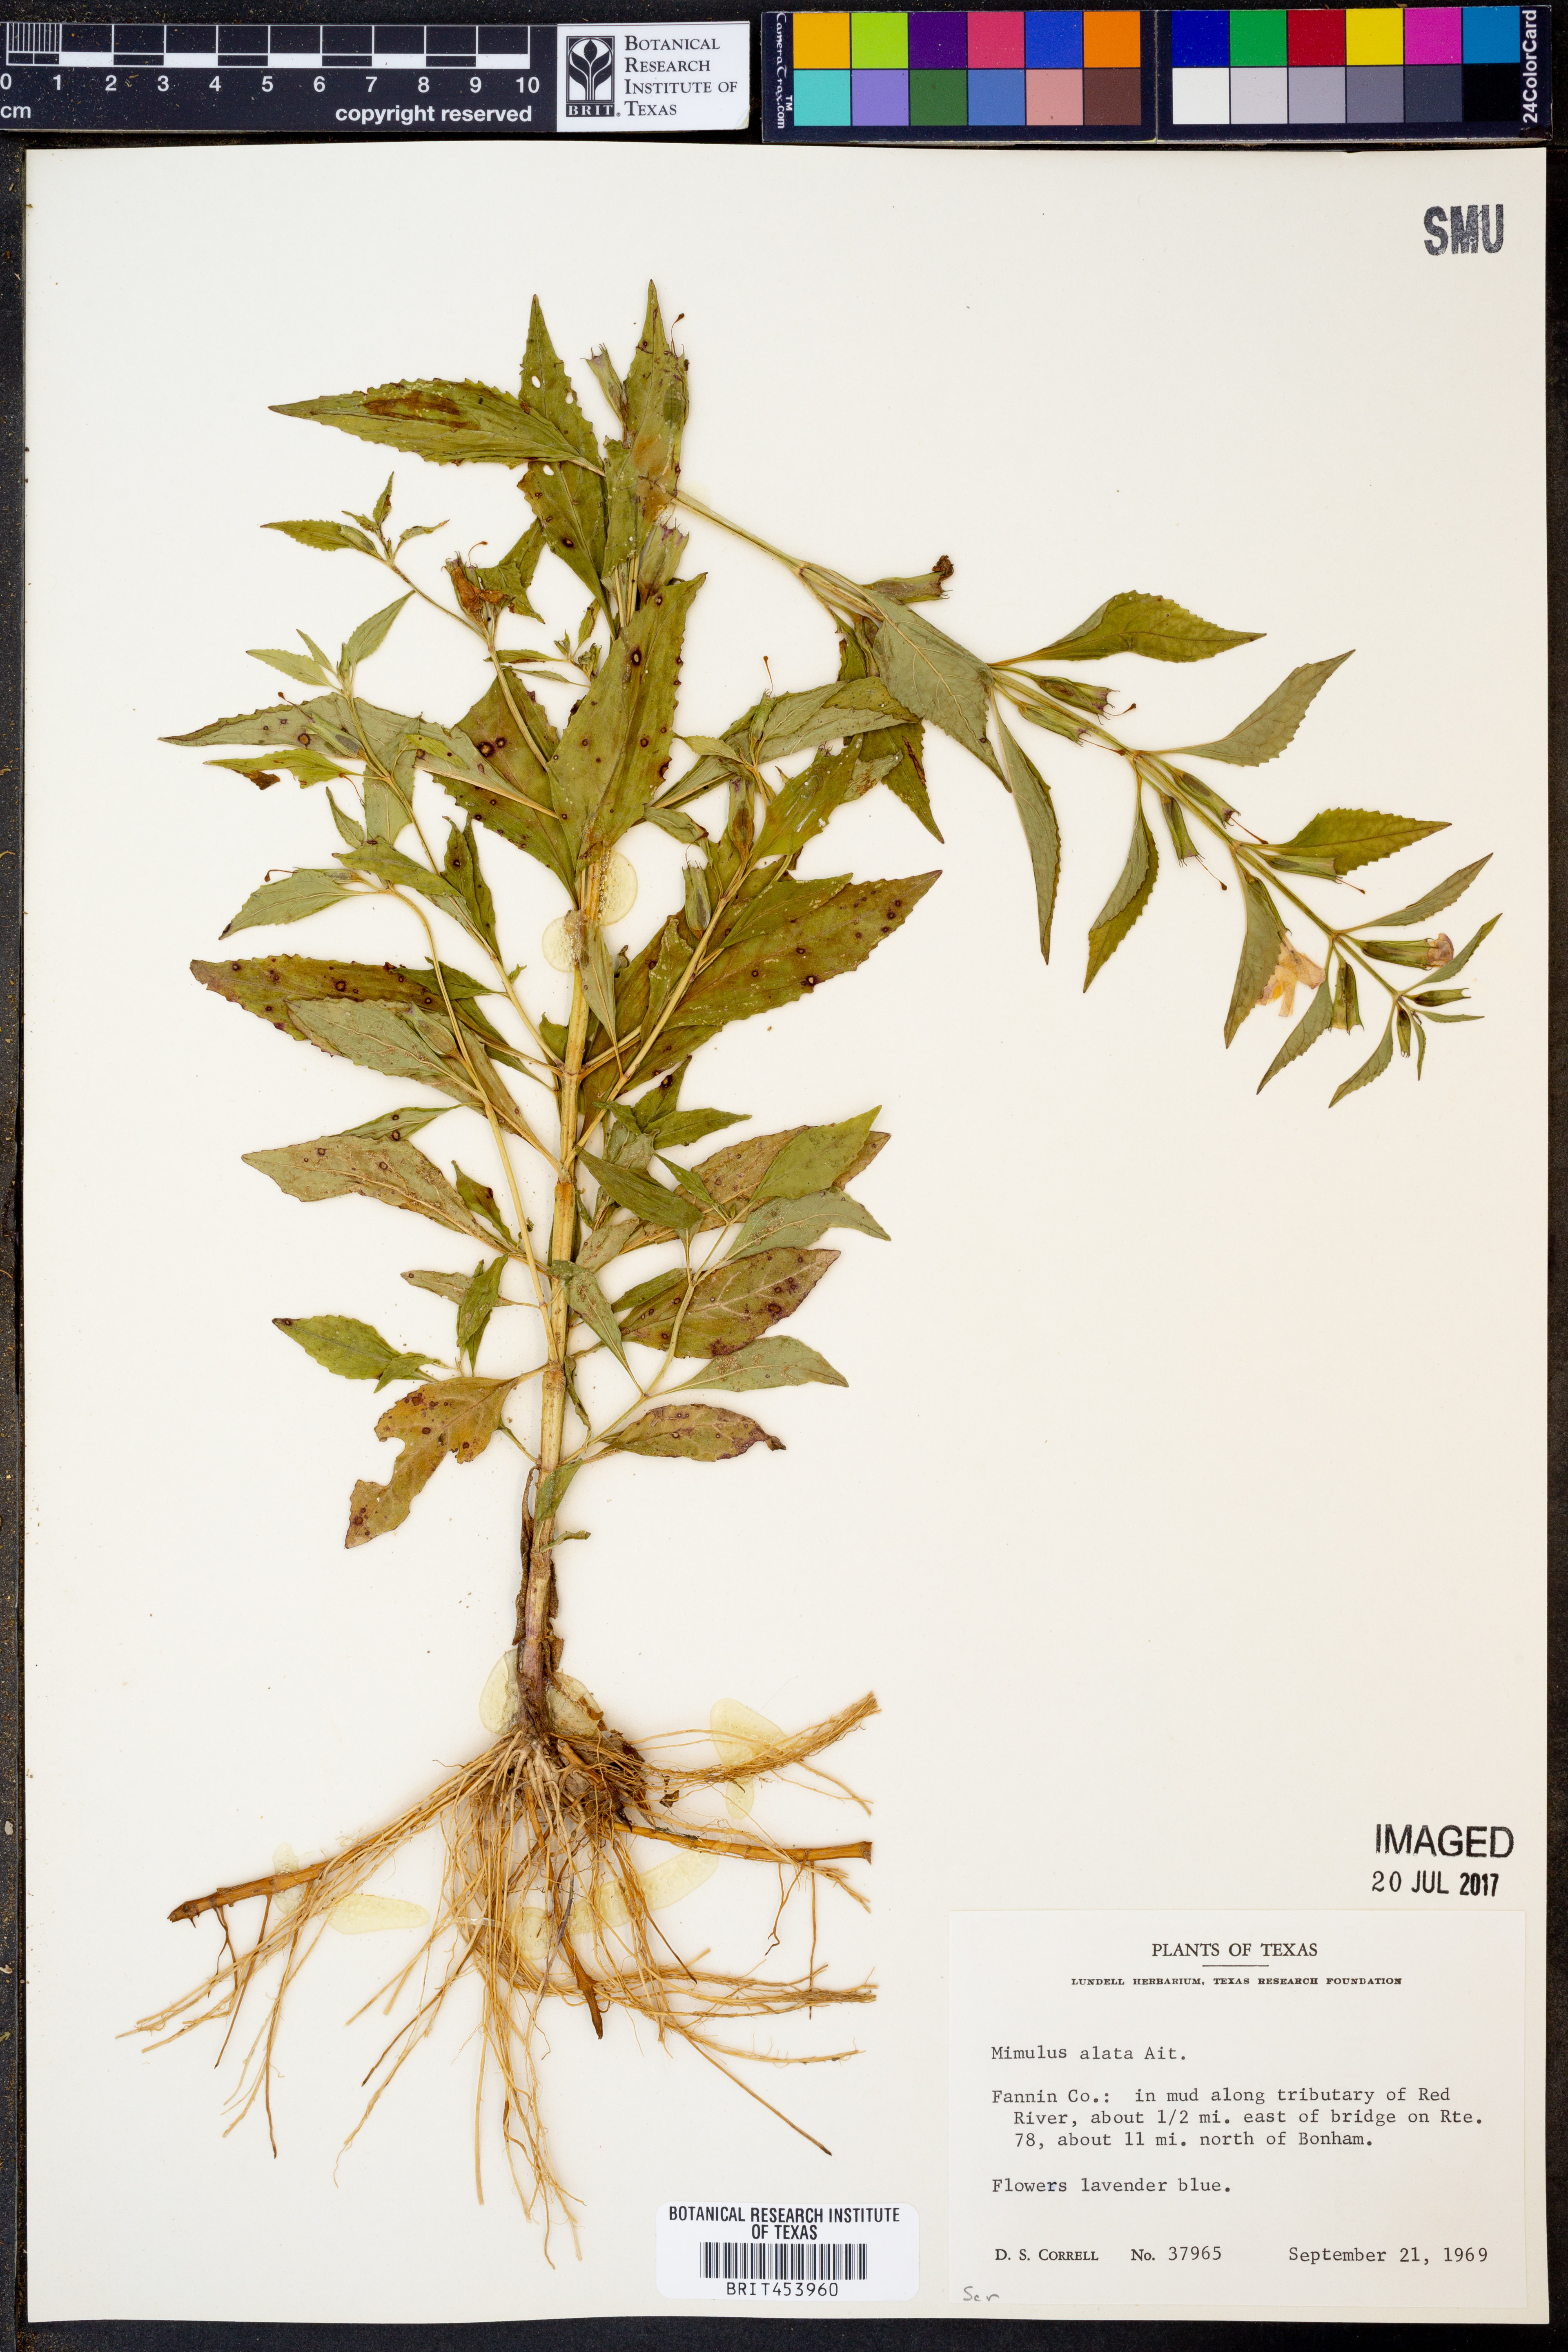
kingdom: Plantae
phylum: Tracheophyta
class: Magnoliopsida
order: Lamiales
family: Phrymaceae
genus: Mimulus
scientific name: Mimulus alatus
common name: Sharp-wing monkey-flower
